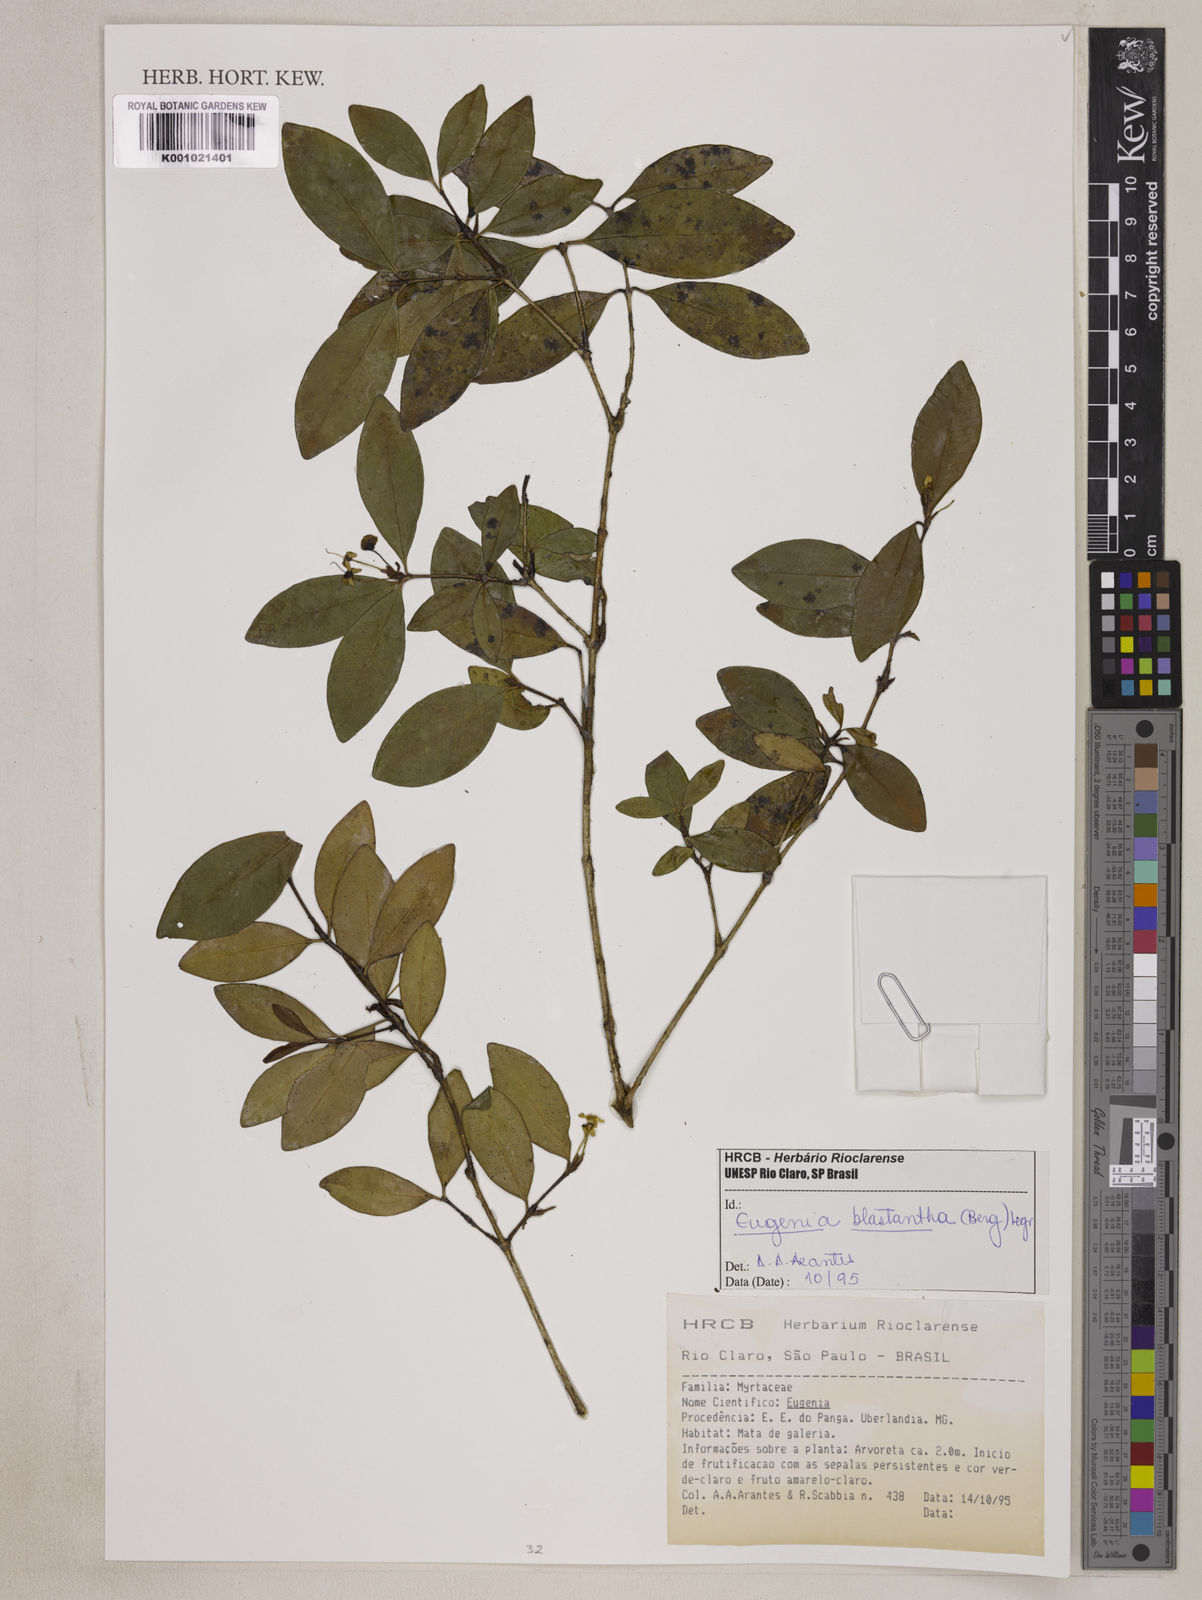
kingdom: Plantae
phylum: Tracheophyta
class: Magnoliopsida
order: Myrtales
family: Myrtaceae
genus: Eugenia
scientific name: Eugenia blastantha
